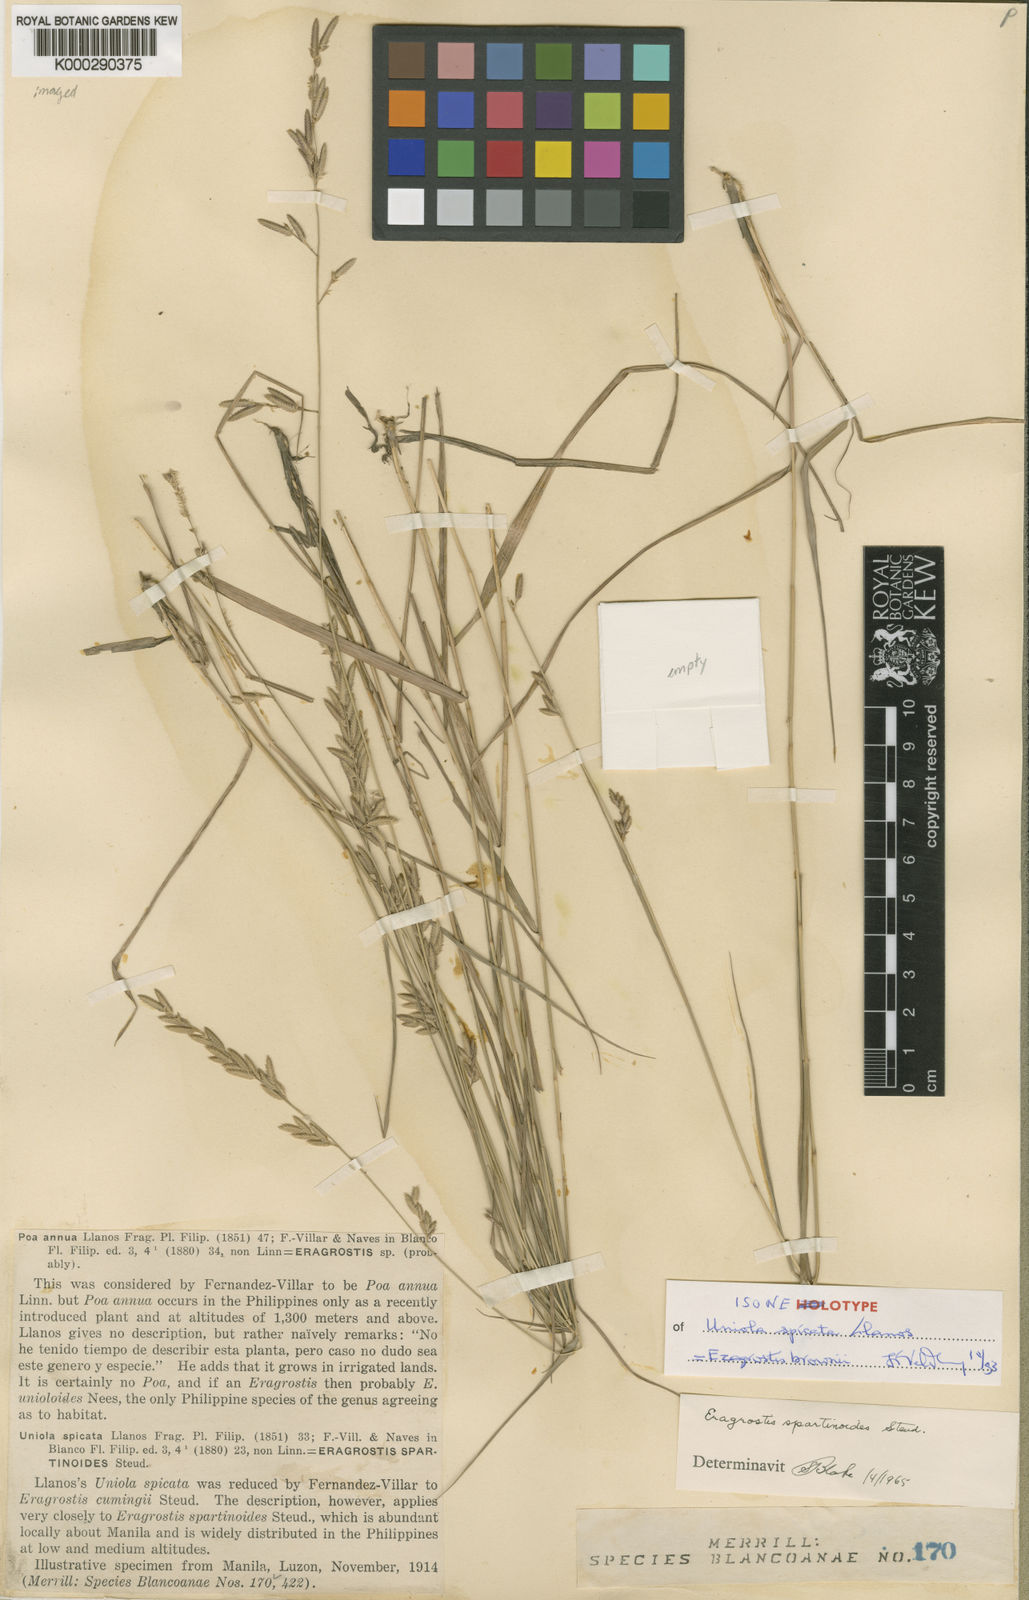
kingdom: Plantae
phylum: Tracheophyta
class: Liliopsida
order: Poales
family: Poaceae
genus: Eragrostis
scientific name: Eragrostis brownii
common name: Lovegrass
